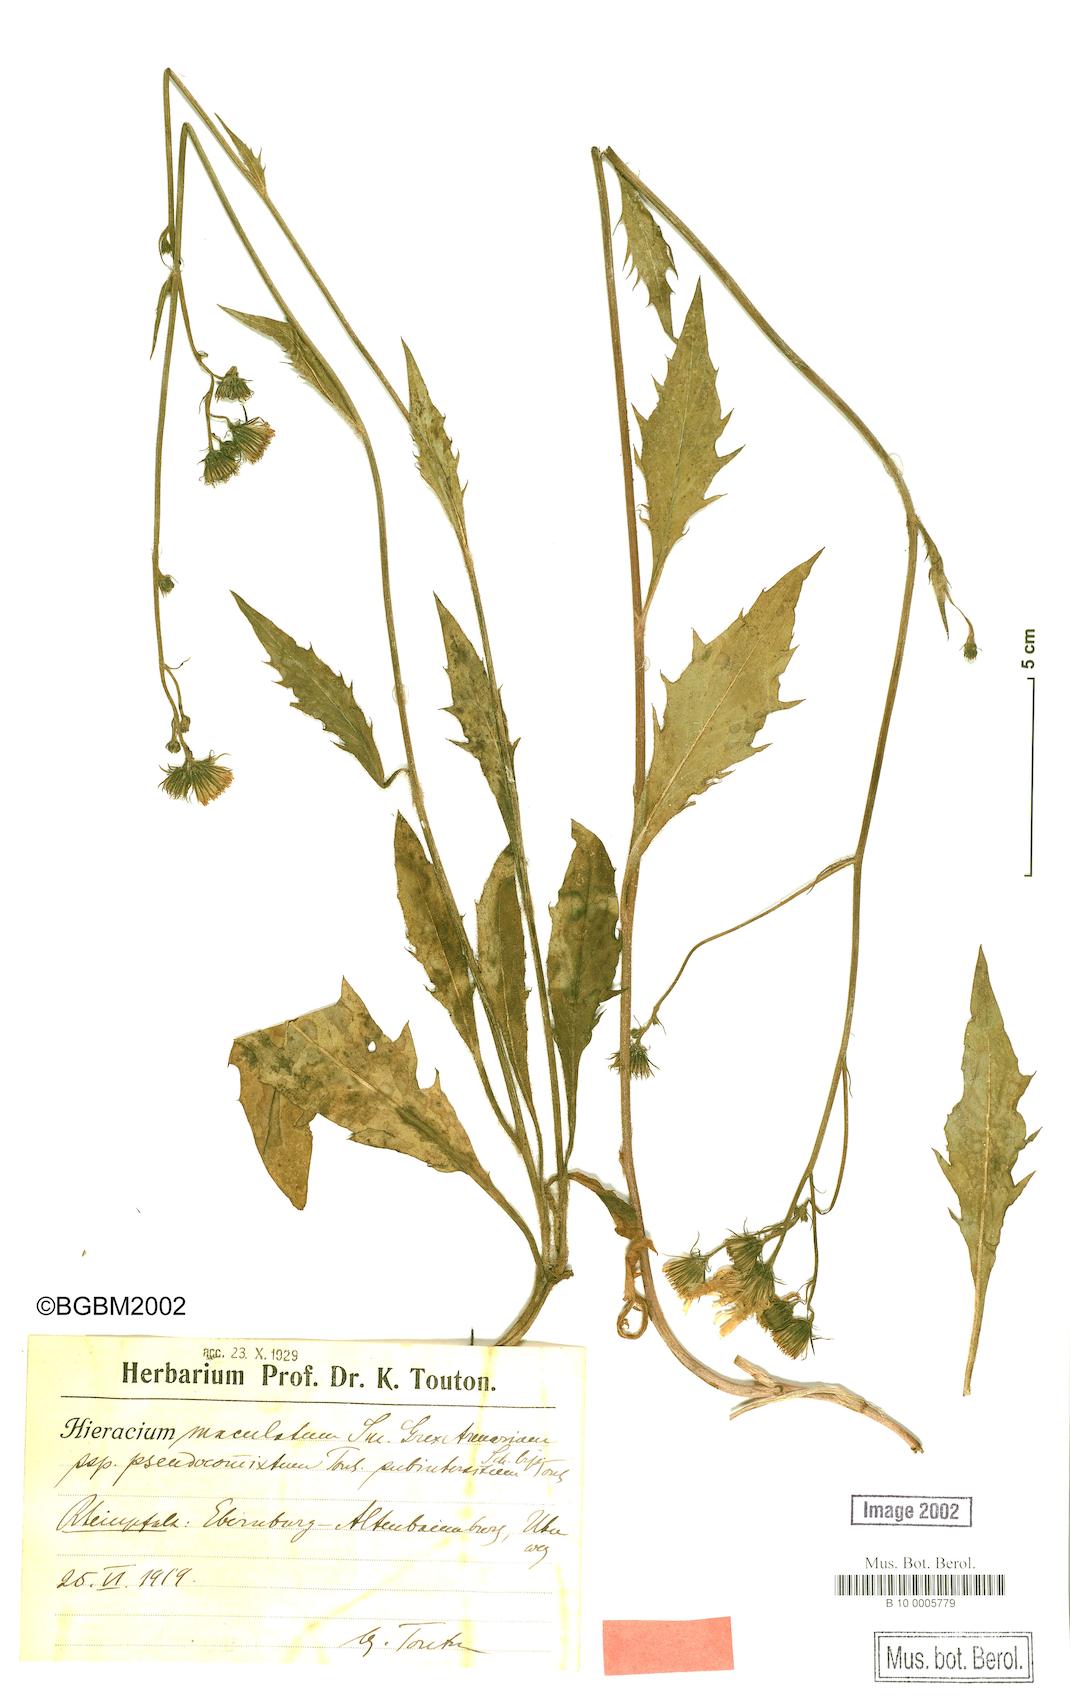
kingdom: Plantae
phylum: Tracheophyta
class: Magnoliopsida
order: Asterales
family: Asteraceae
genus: Hieracium
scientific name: Hieracium maculatum
